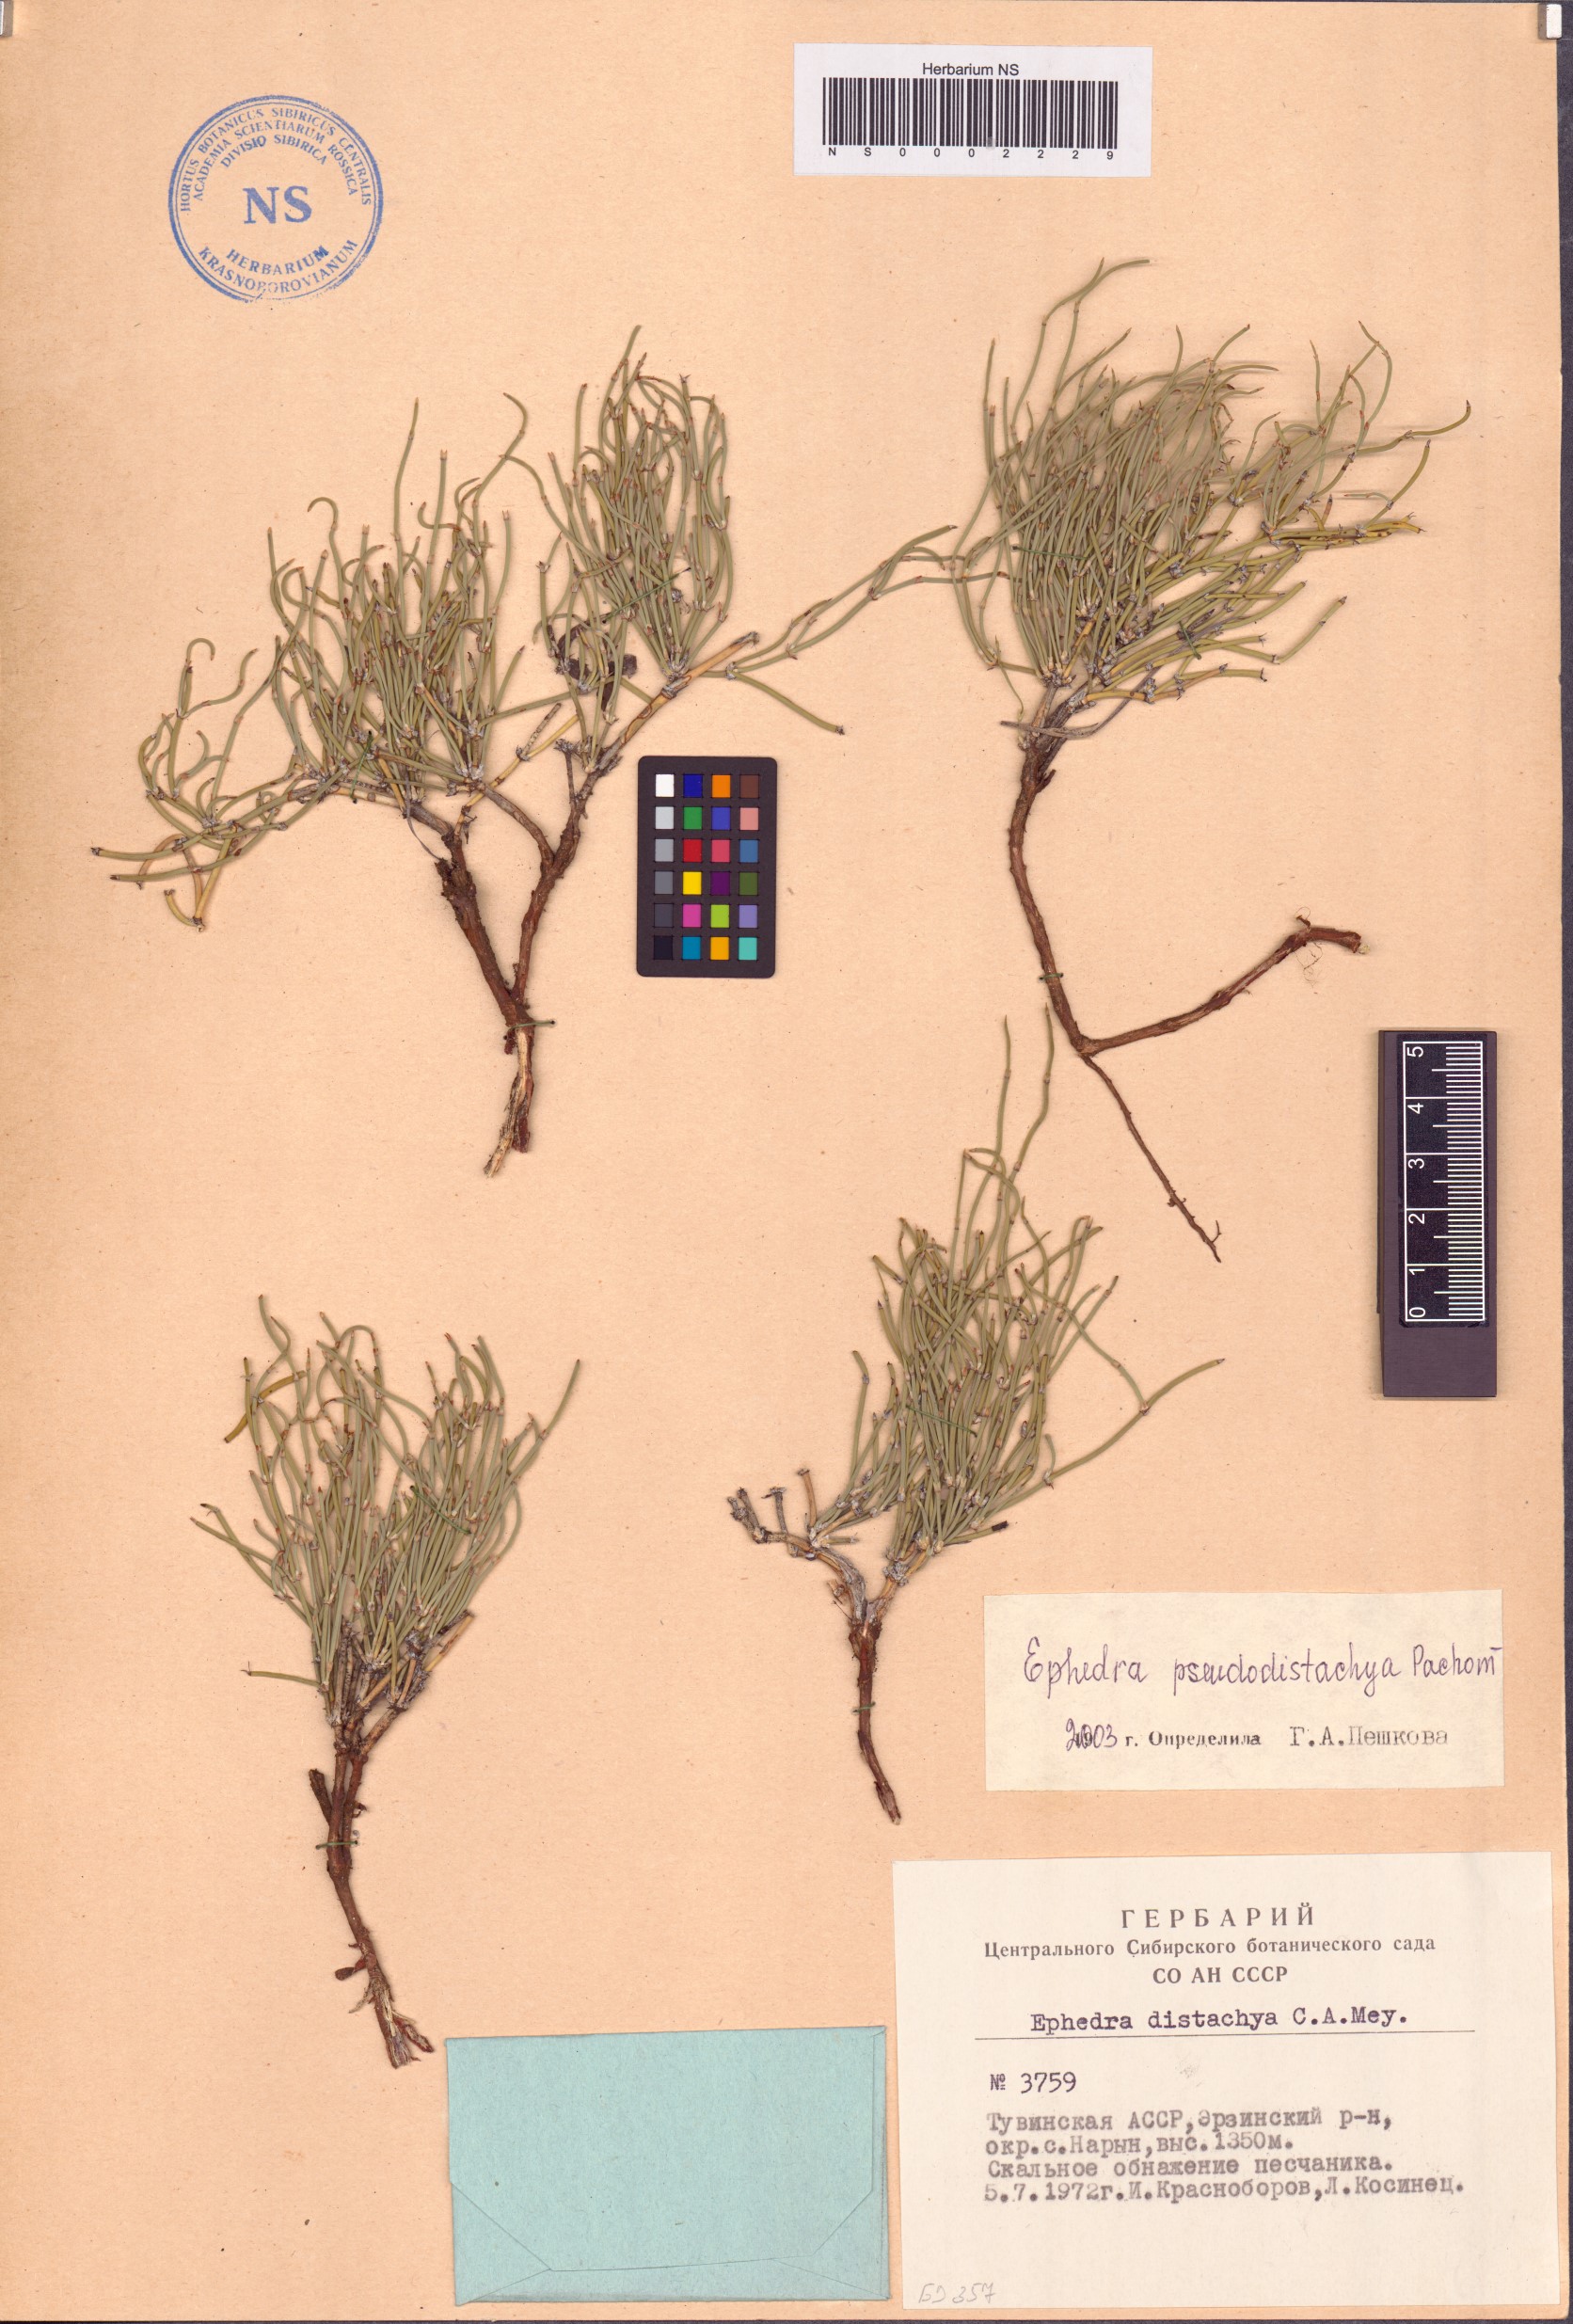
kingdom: Plantae
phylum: Tracheophyta
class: Gnetopsida
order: Ephedrales
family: Ephedraceae
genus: Ephedra
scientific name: Ephedra pseudodistachya
